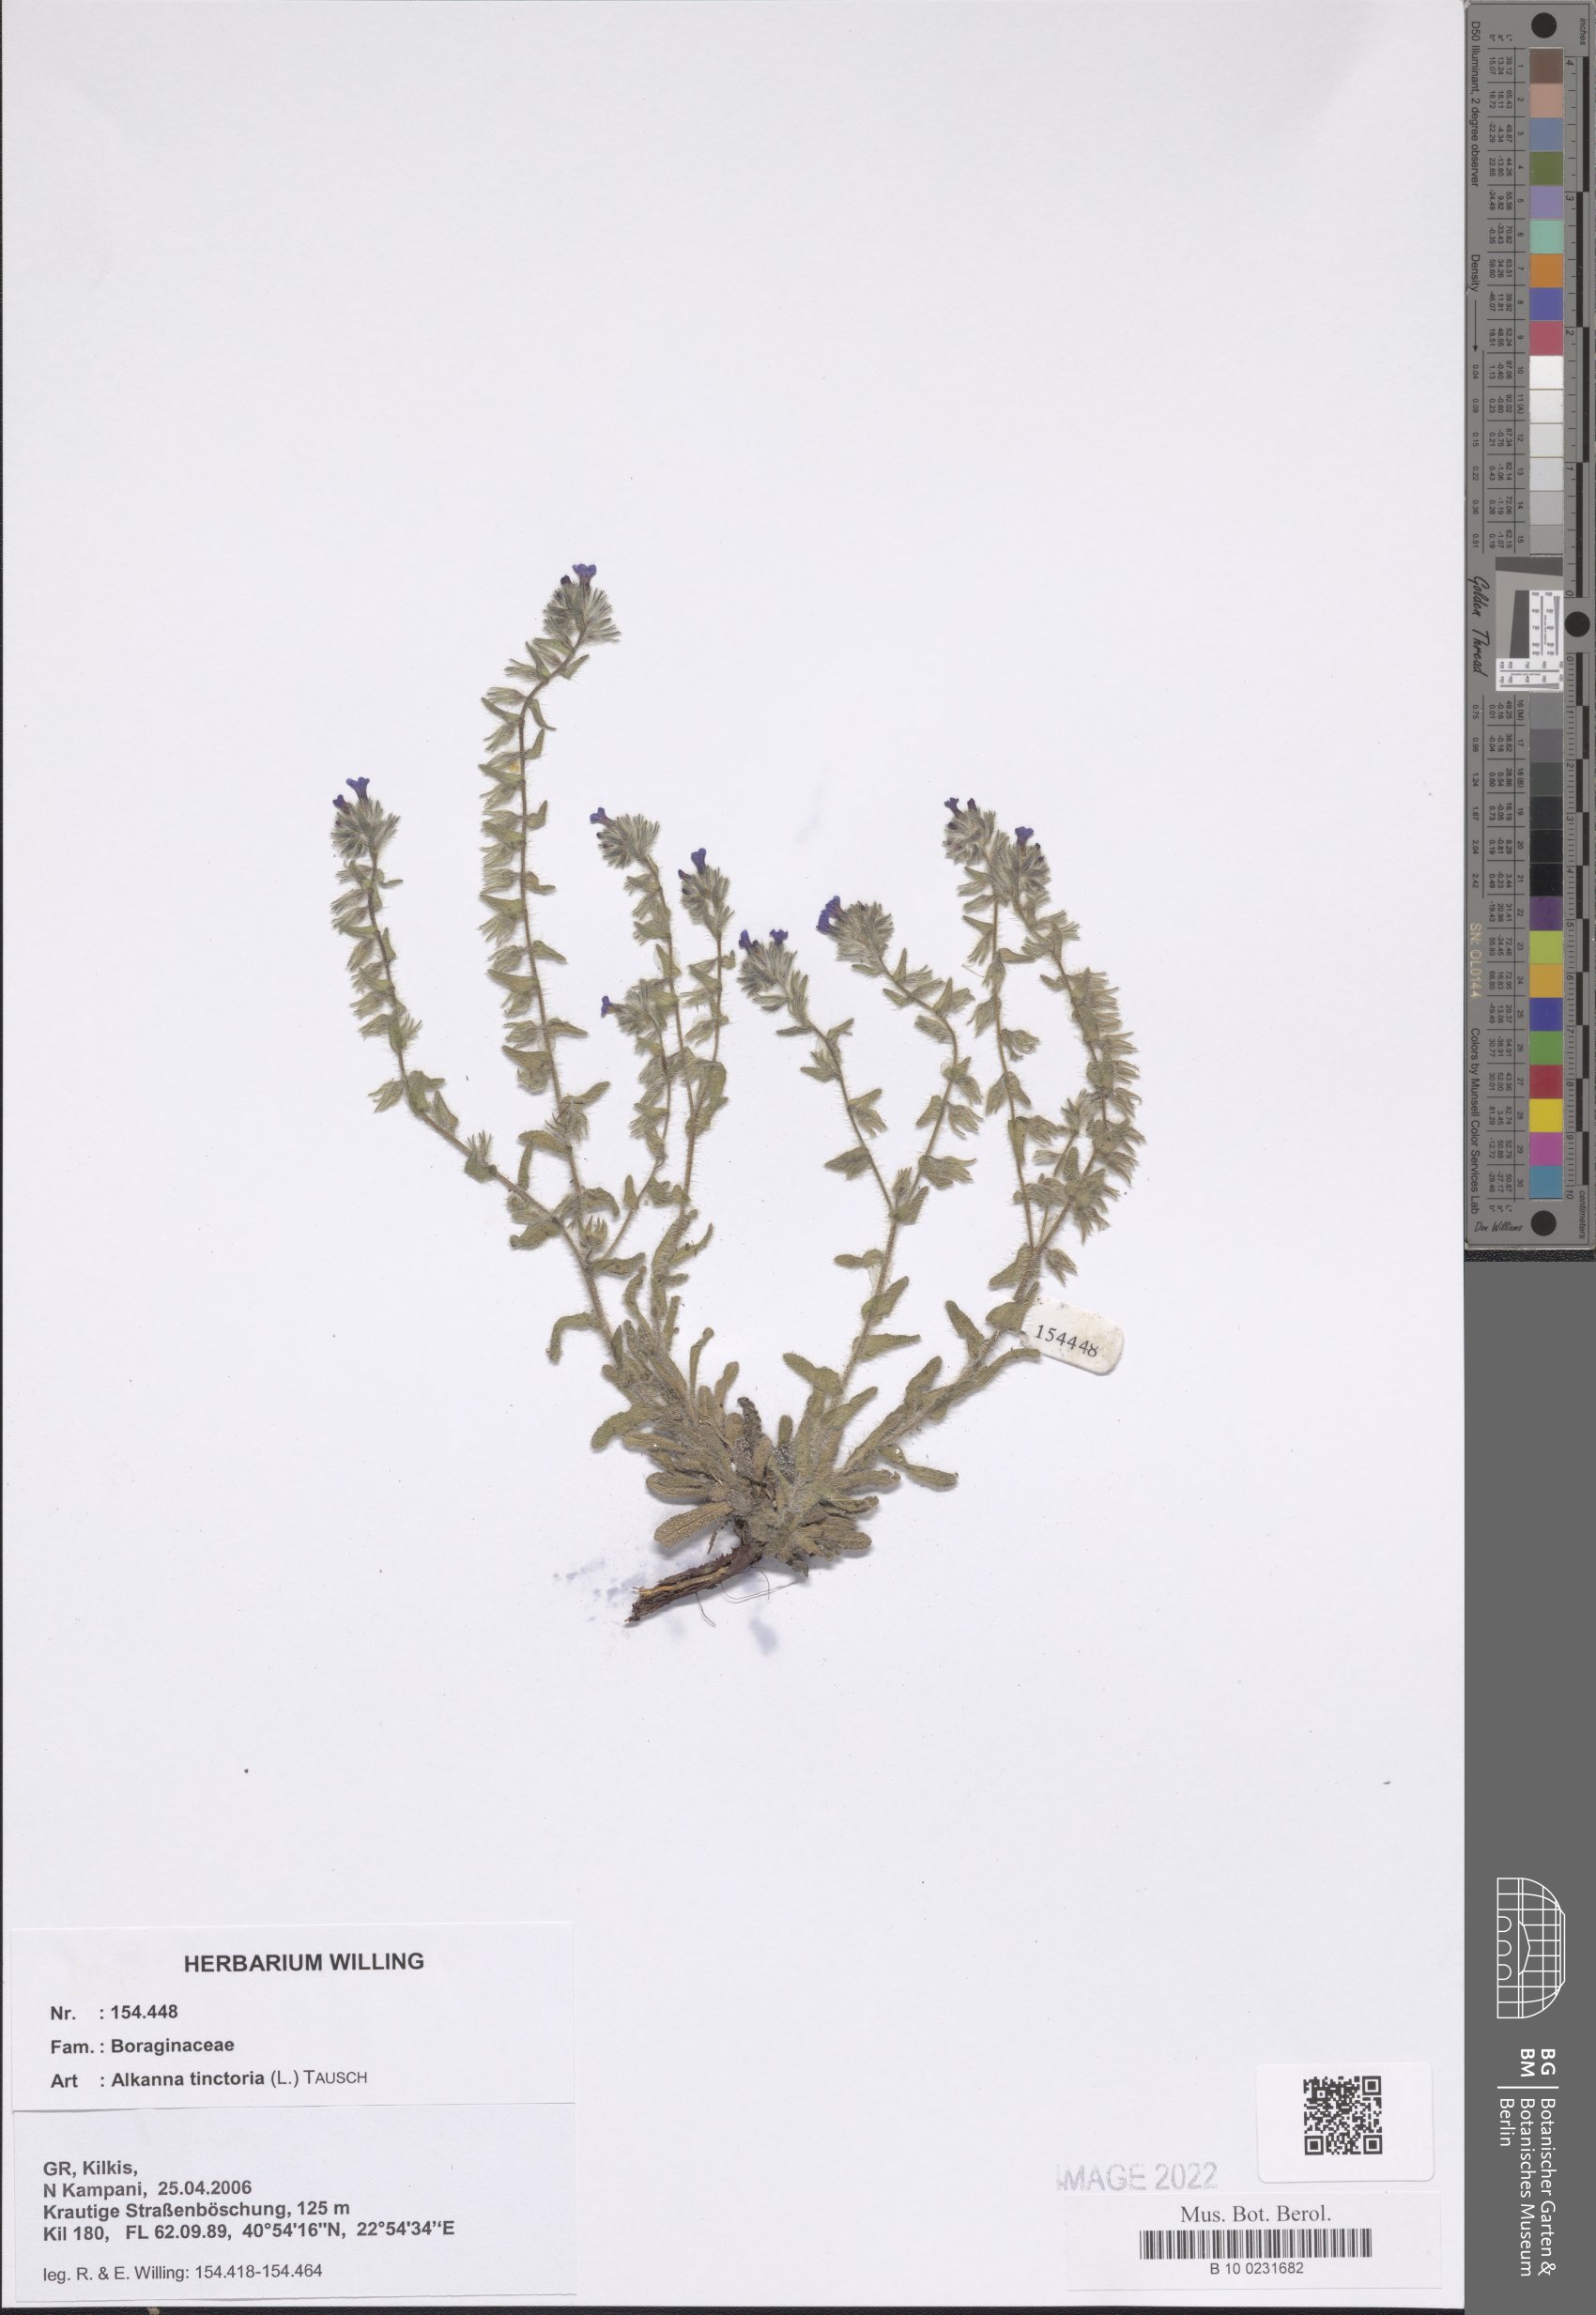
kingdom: Plantae
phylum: Tracheophyta
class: Magnoliopsida
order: Boraginales
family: Boraginaceae
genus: Alkanna
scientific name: Alkanna tinctoria
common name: Dyer's-alkanet
